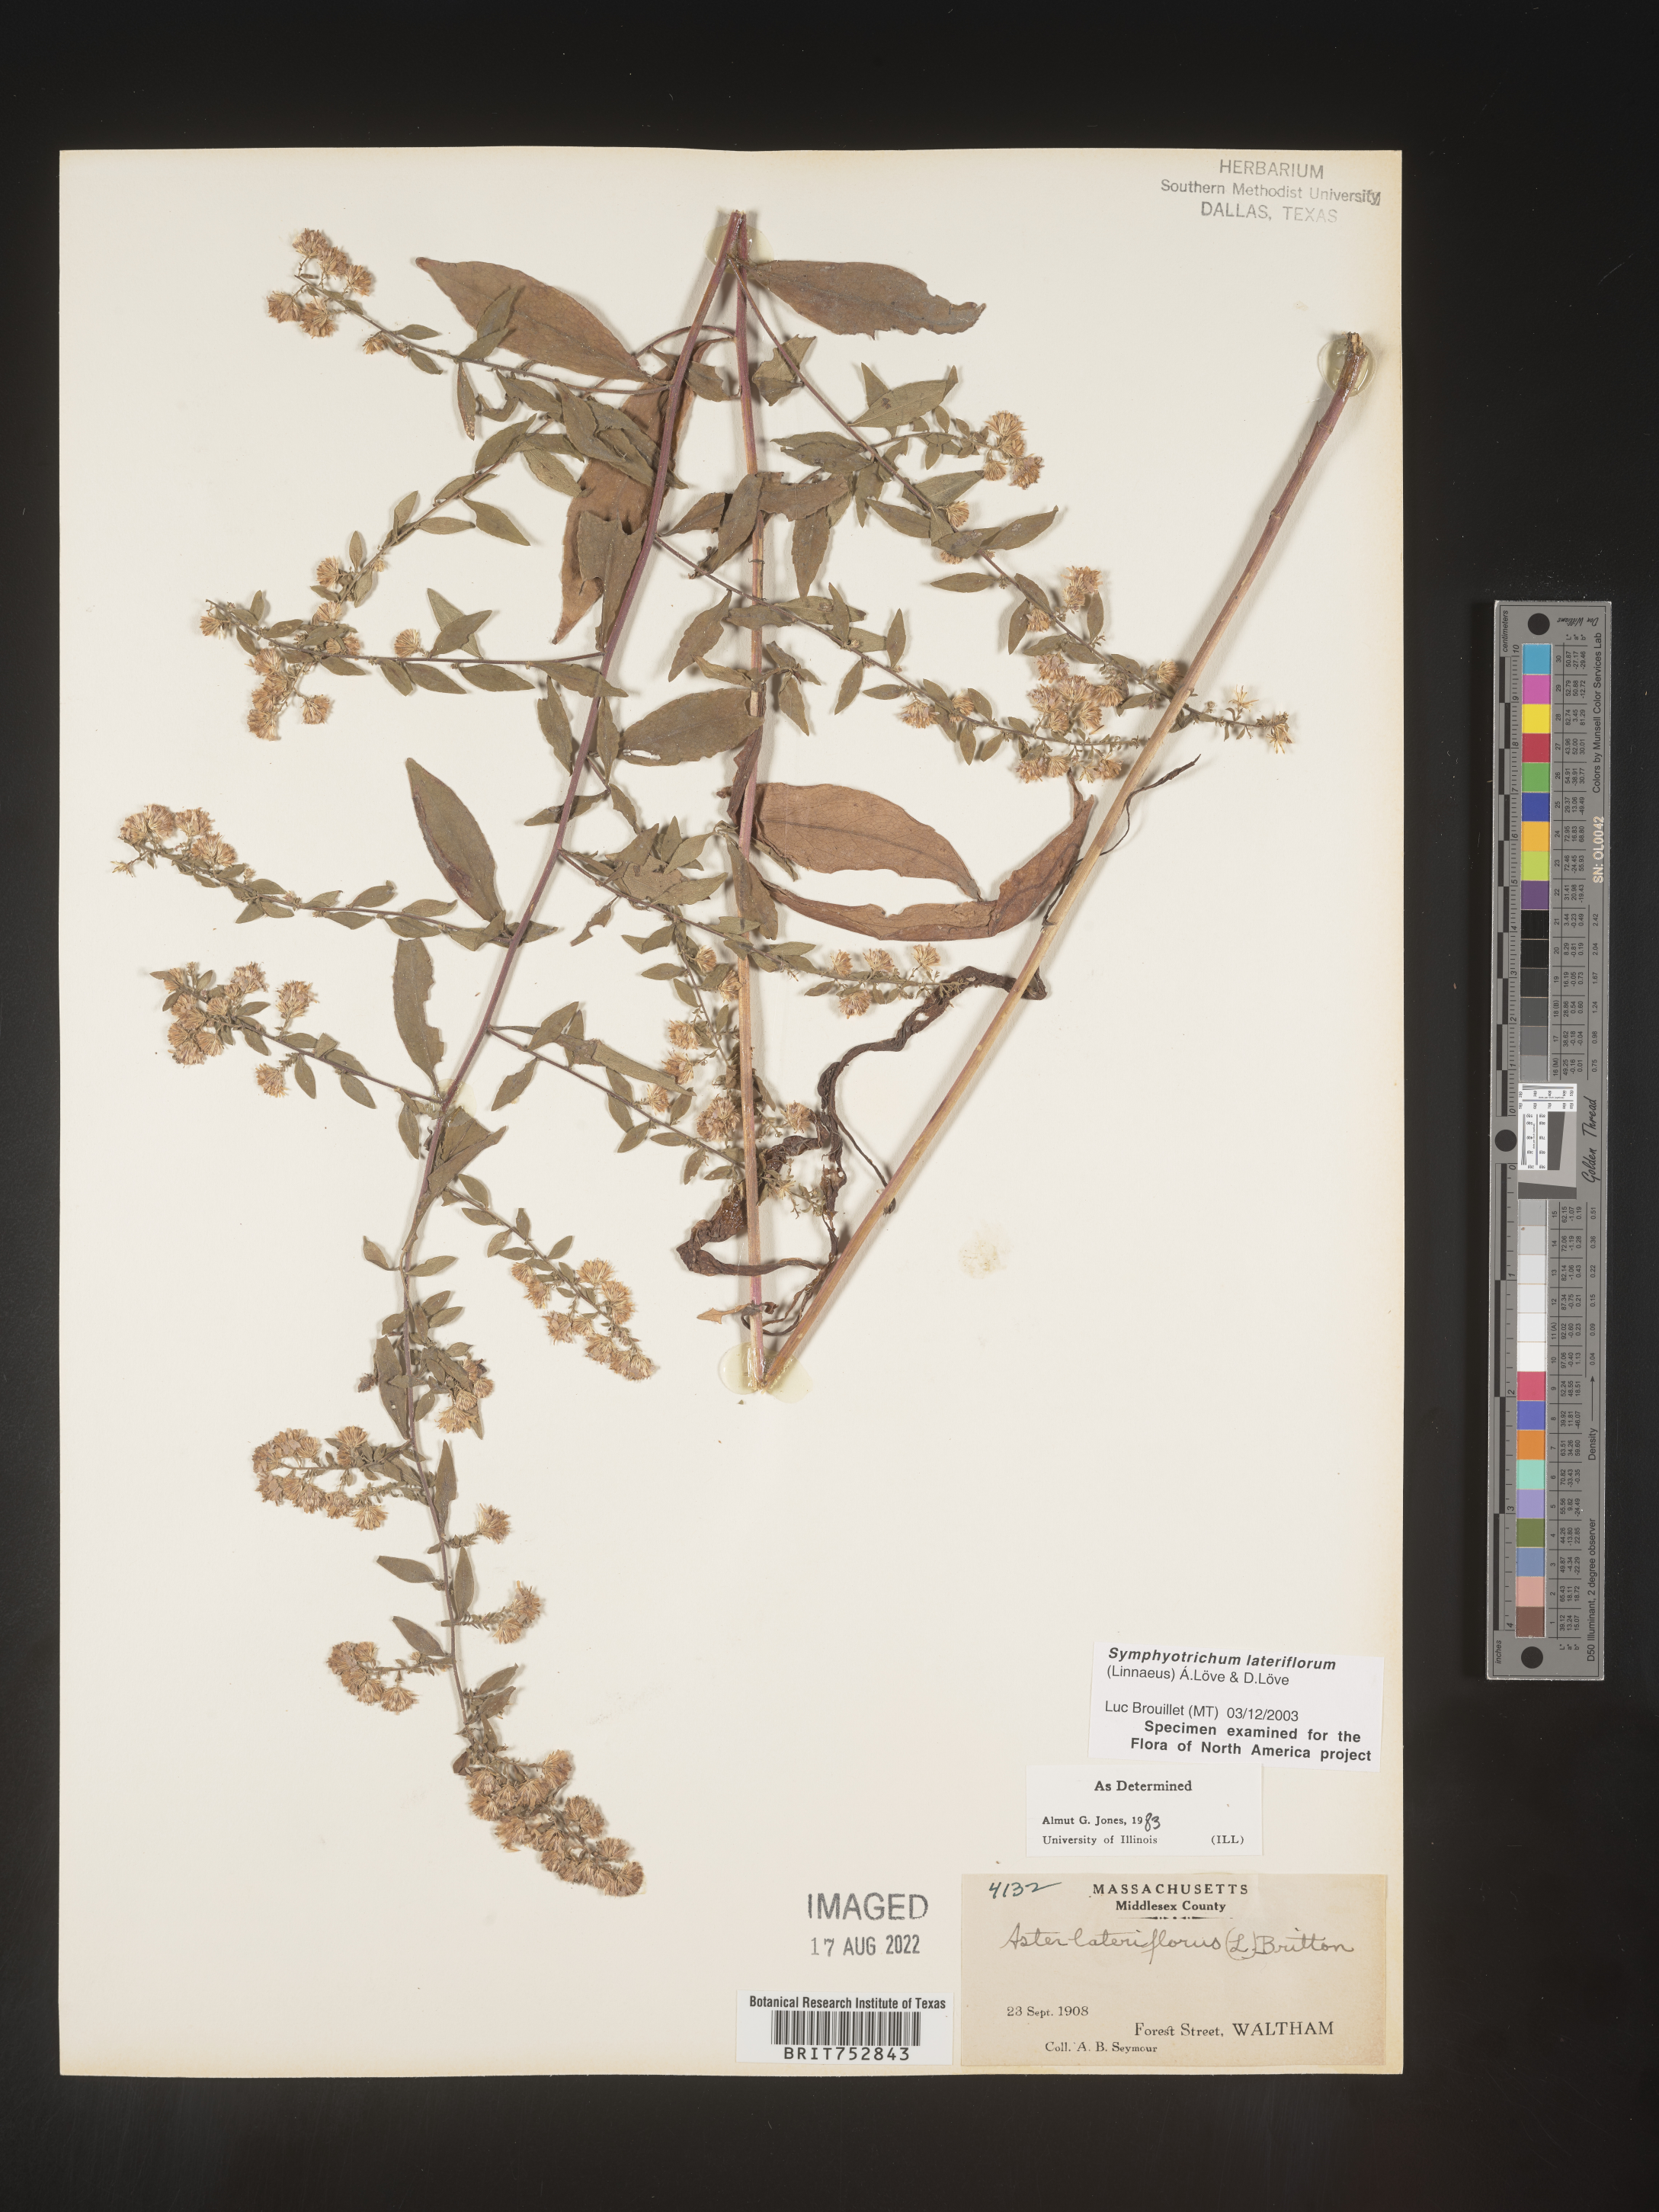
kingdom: Plantae
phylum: Tracheophyta
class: Magnoliopsida
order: Asterales
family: Asteraceae
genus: Symphyotrichum
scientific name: Symphyotrichum lateriflorum
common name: Calico aster
